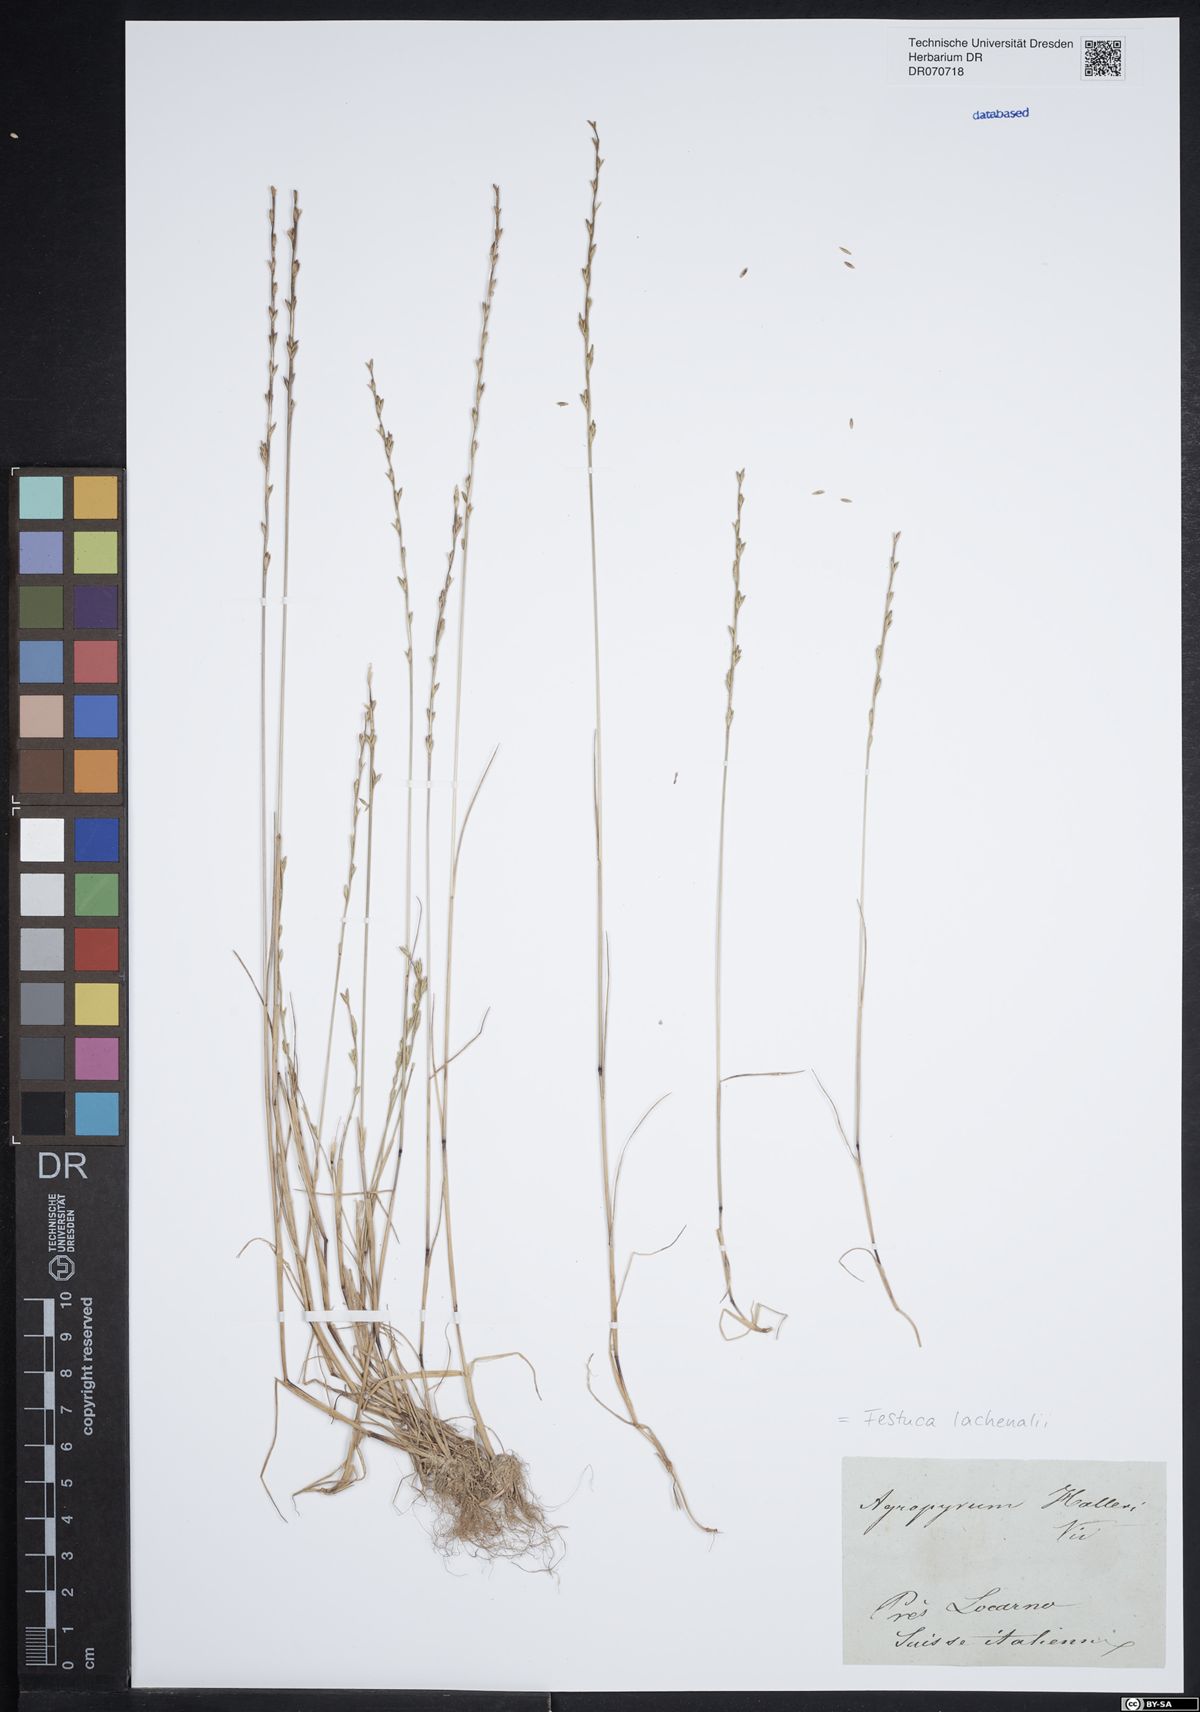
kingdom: Plantae
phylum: Tracheophyta
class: Liliopsida
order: Poales
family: Poaceae
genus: Festuca
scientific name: Festuca lachenalii
